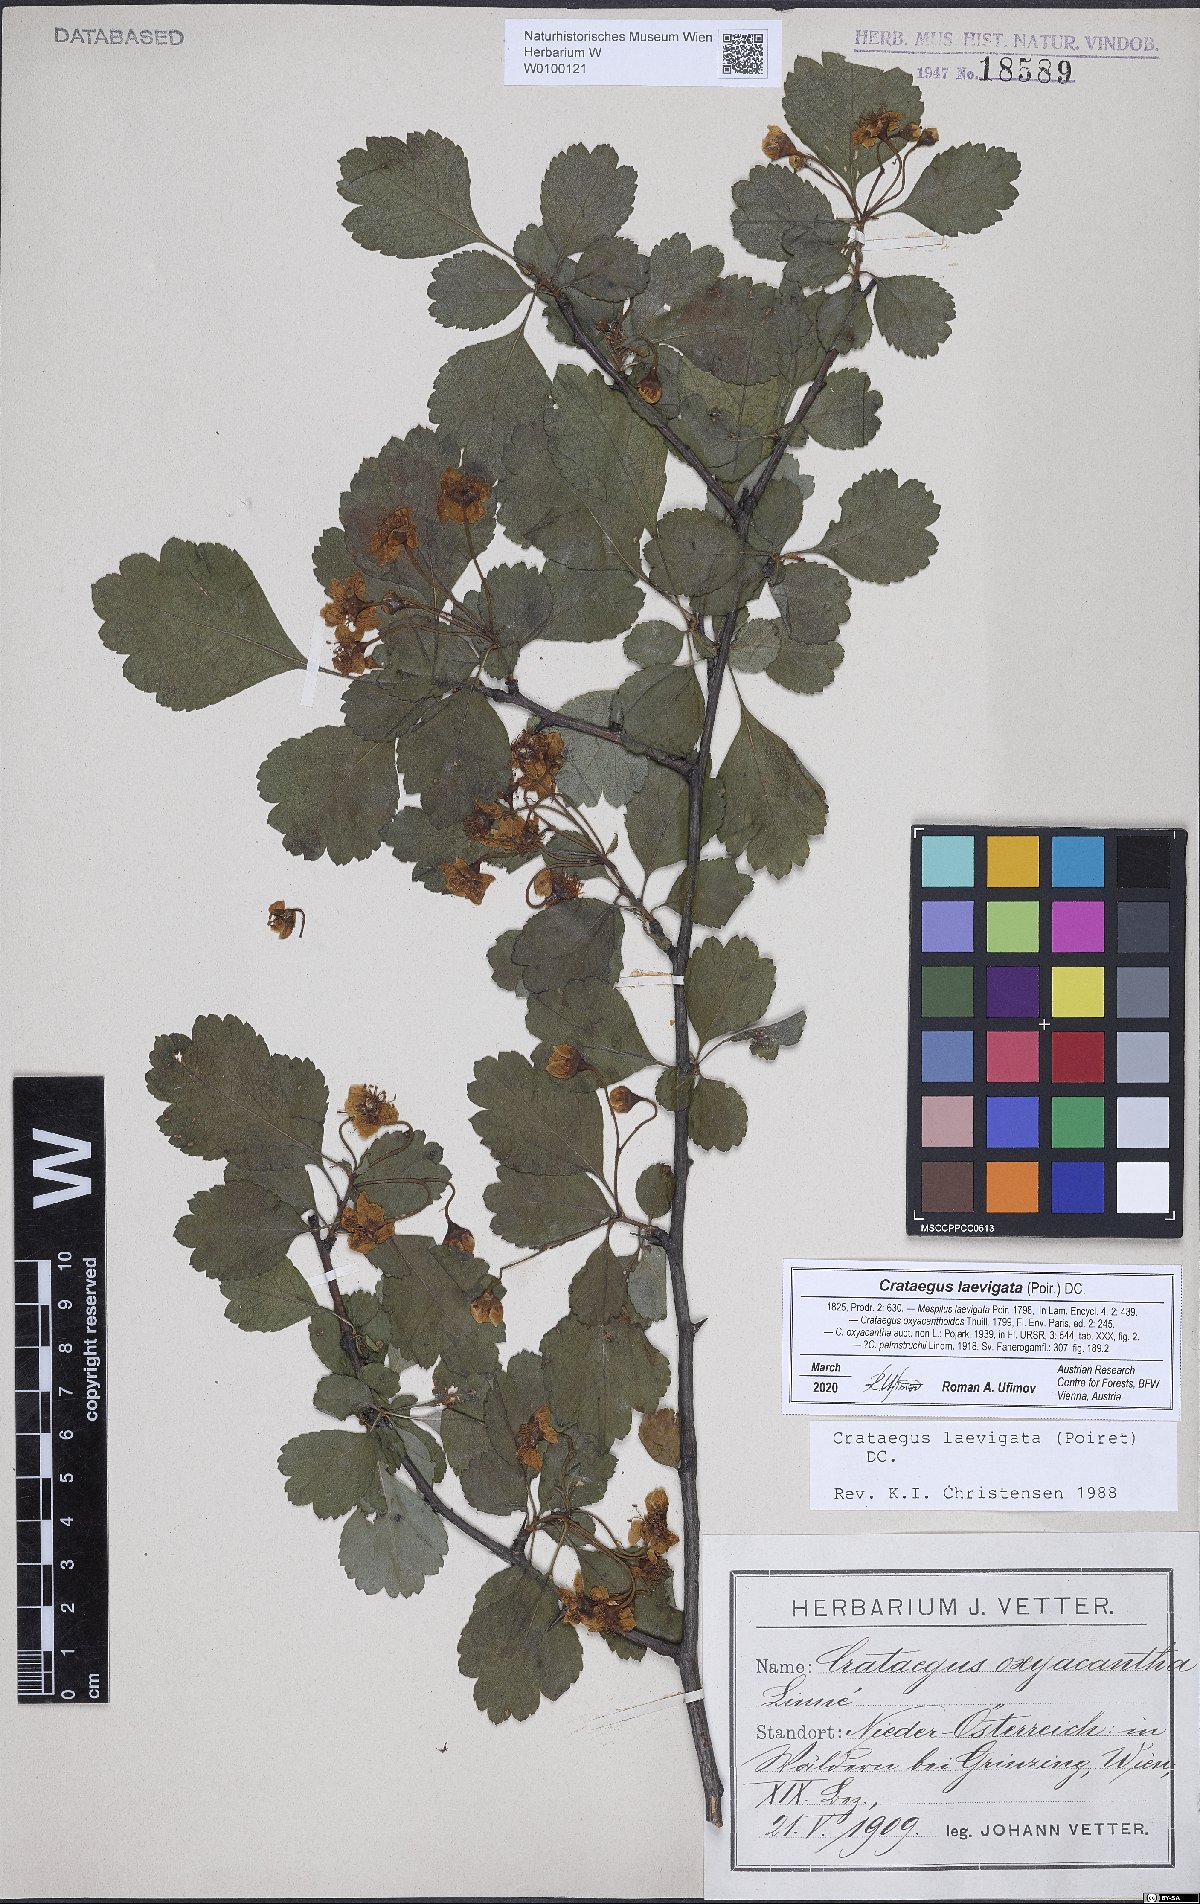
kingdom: Plantae
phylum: Tracheophyta
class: Magnoliopsida
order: Rosales
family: Rosaceae
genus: Crataegus
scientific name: Crataegus laevigata
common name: Midland hawthorn
